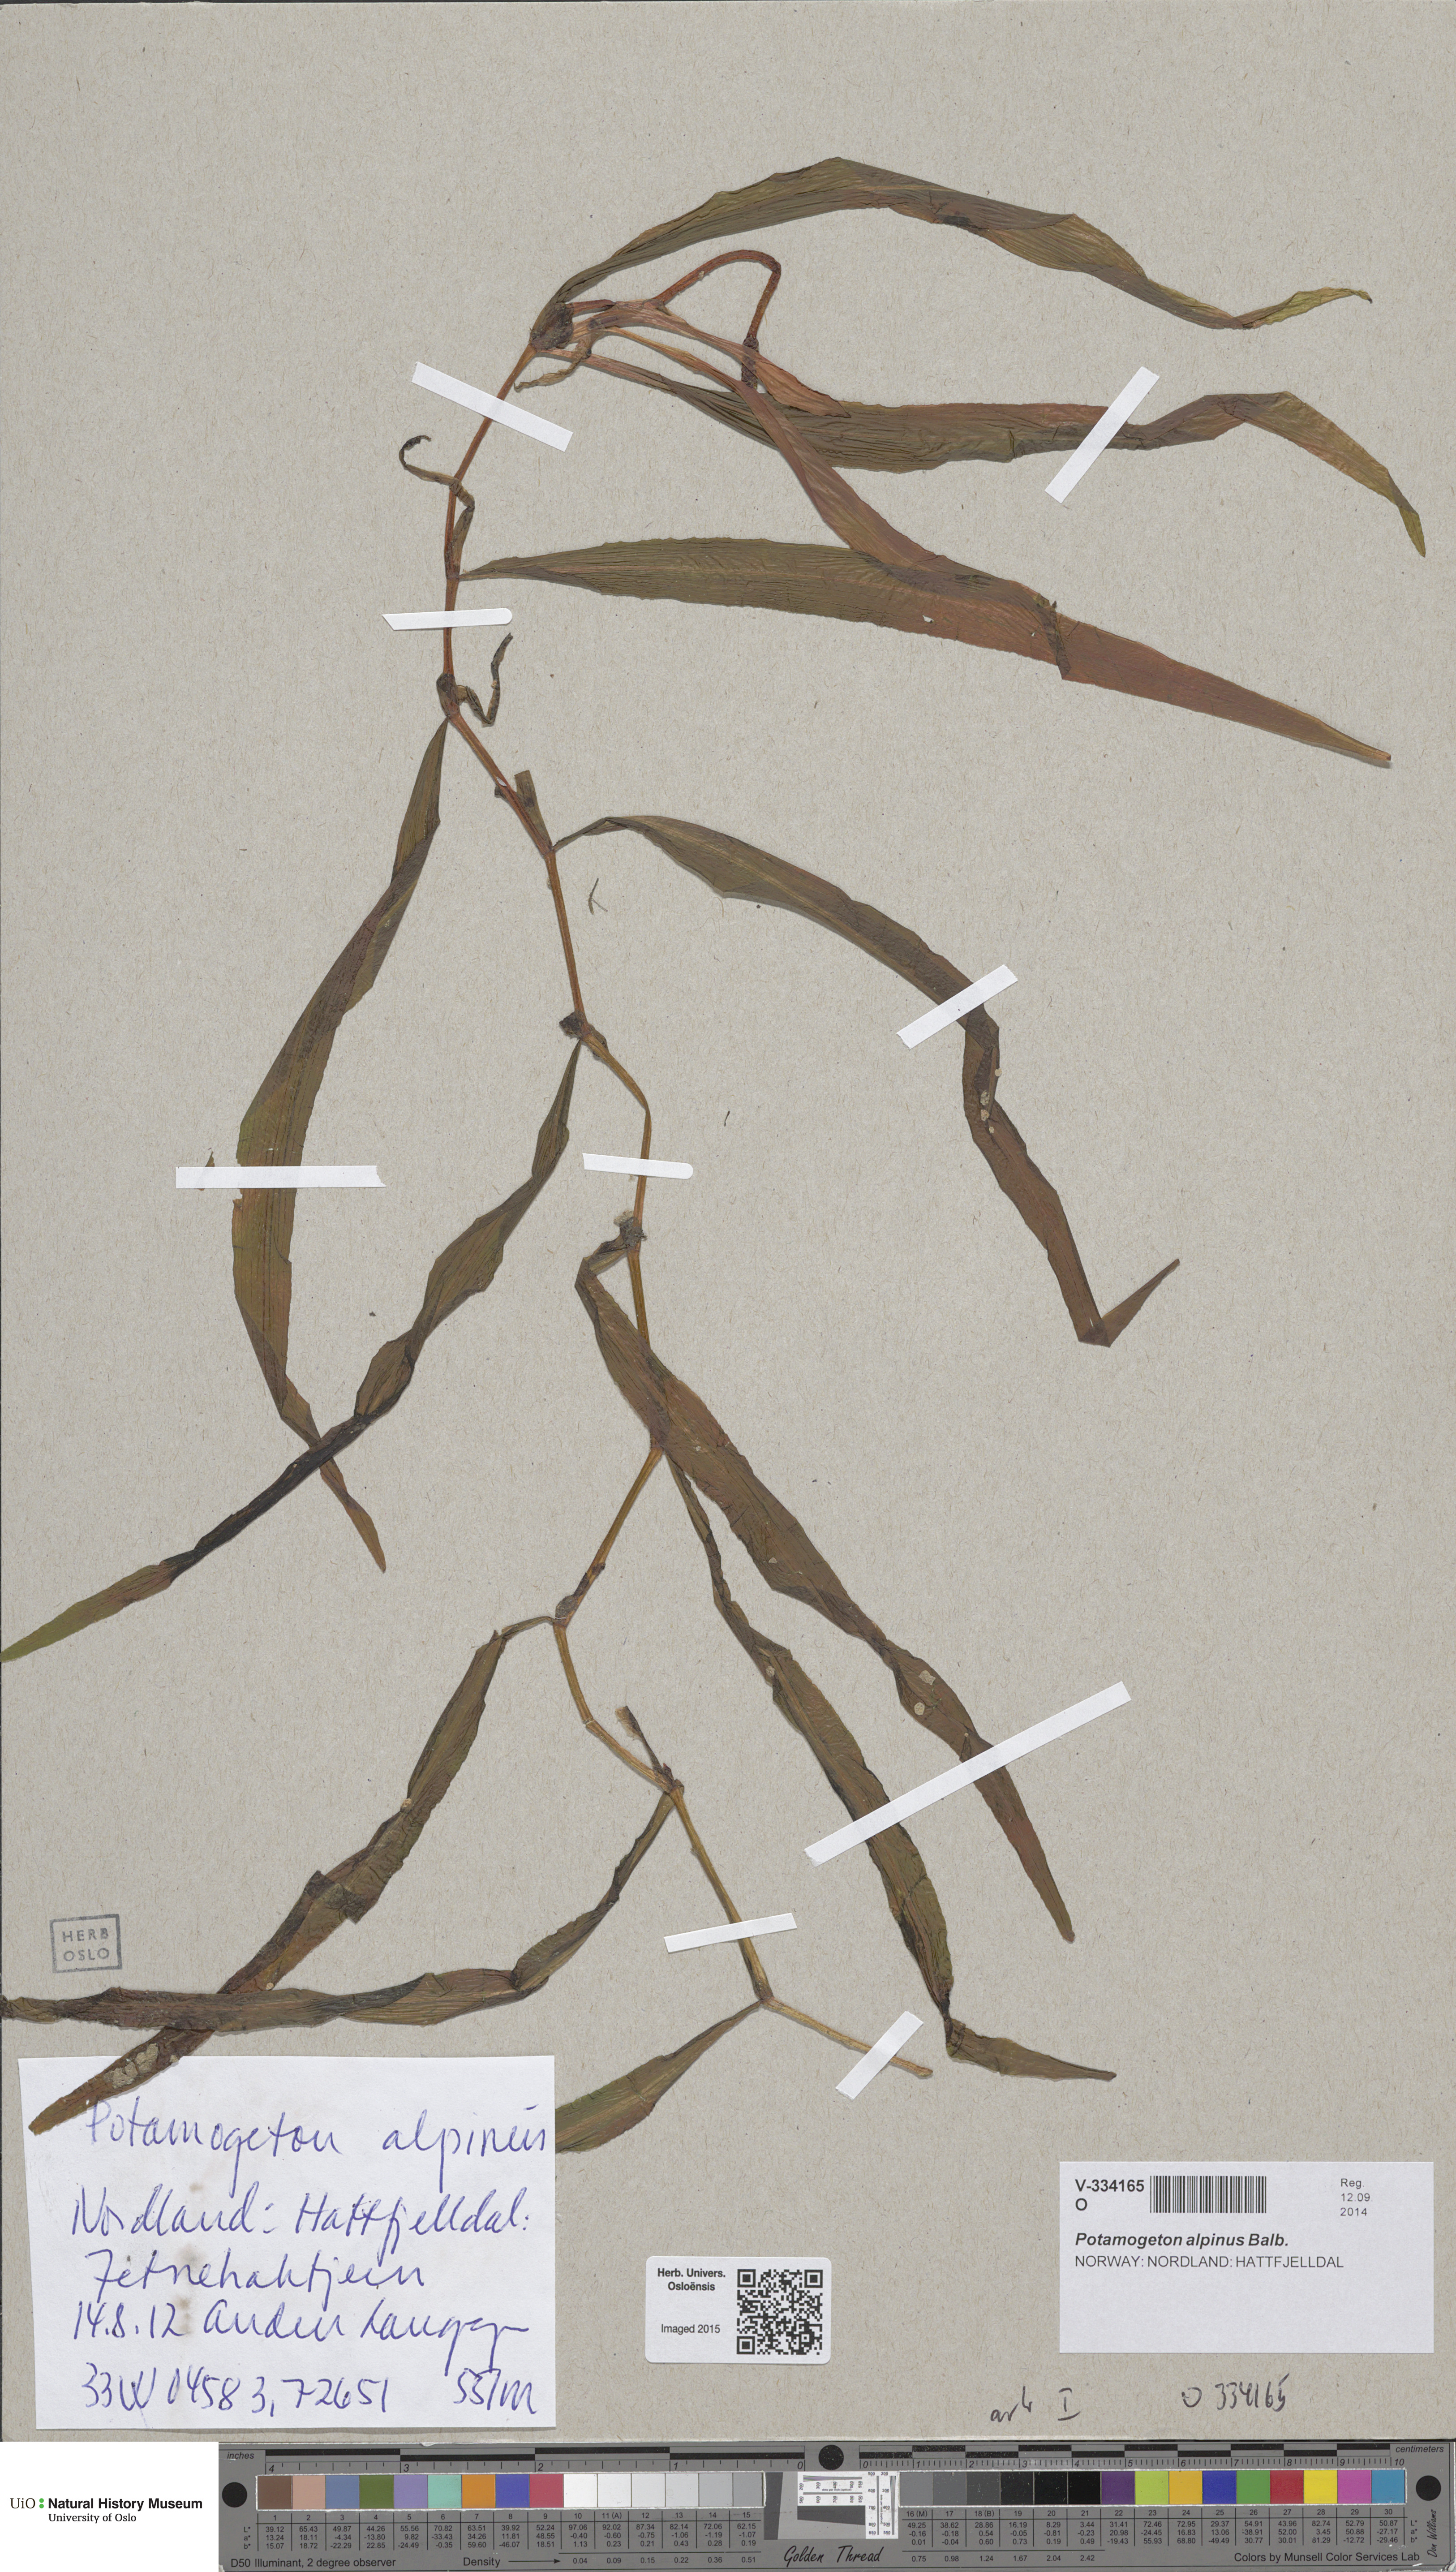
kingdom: Plantae
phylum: Tracheophyta
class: Liliopsida
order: Alismatales
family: Potamogetonaceae
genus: Potamogeton
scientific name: Potamogeton alpinus
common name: Red pondweed
